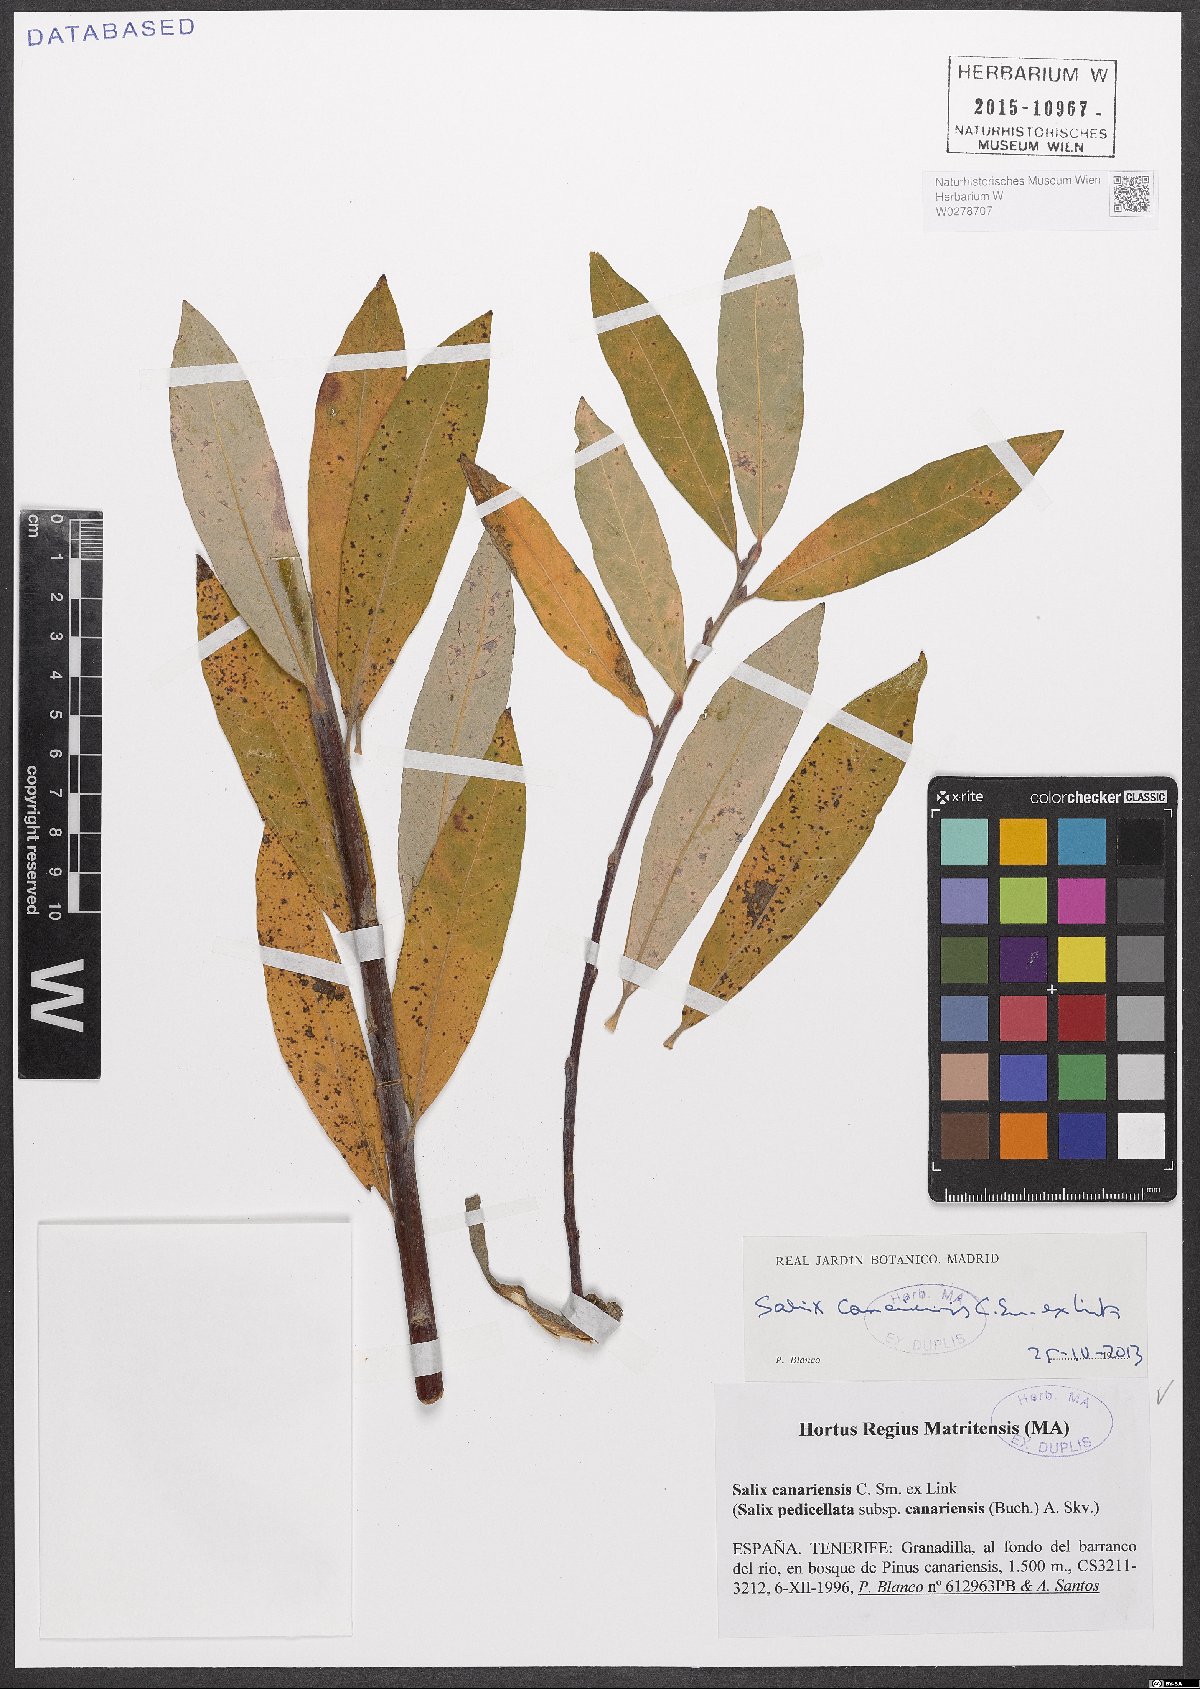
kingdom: Plantae
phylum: Tracheophyta
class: Magnoliopsida
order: Malpighiales
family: Salicaceae
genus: Salix
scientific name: Salix canariensis
